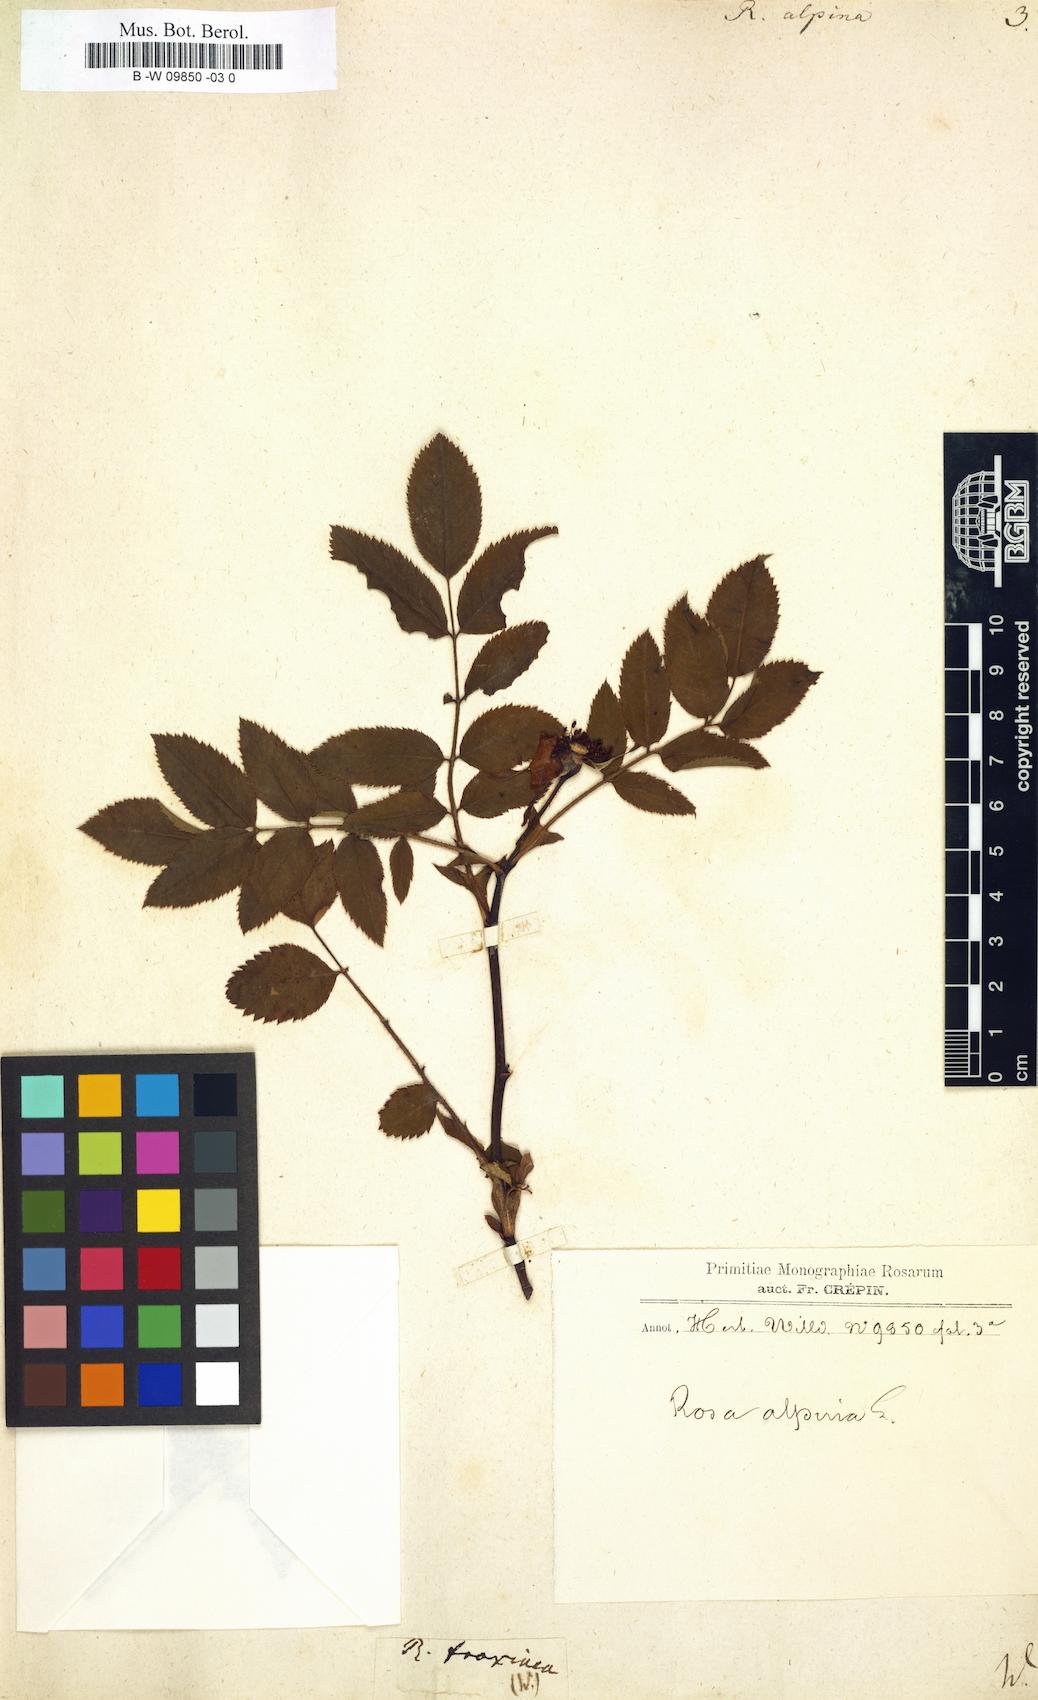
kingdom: Plantae
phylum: Tracheophyta
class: Magnoliopsida
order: Rosales
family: Rosaceae
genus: Rosa
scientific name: Rosa
